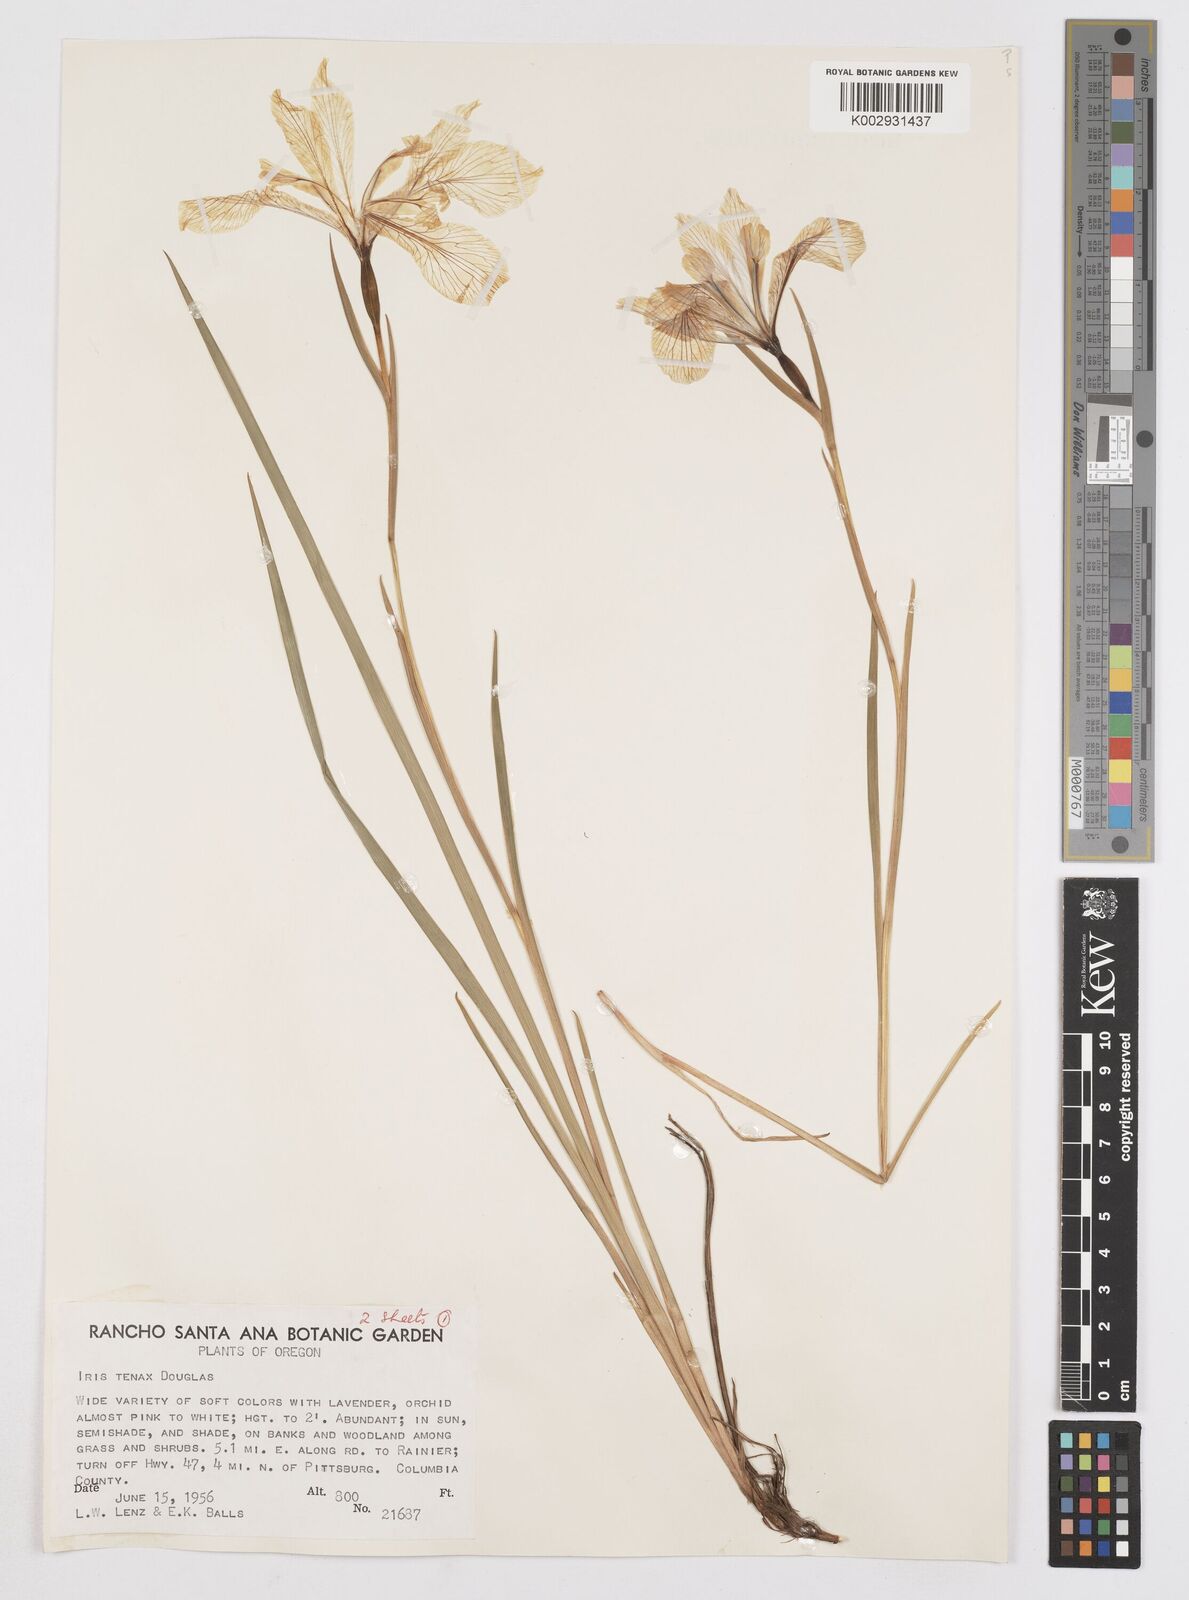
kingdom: Plantae
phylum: Tracheophyta
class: Liliopsida
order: Asparagales
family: Iridaceae
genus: Iris
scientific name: Iris tenax
